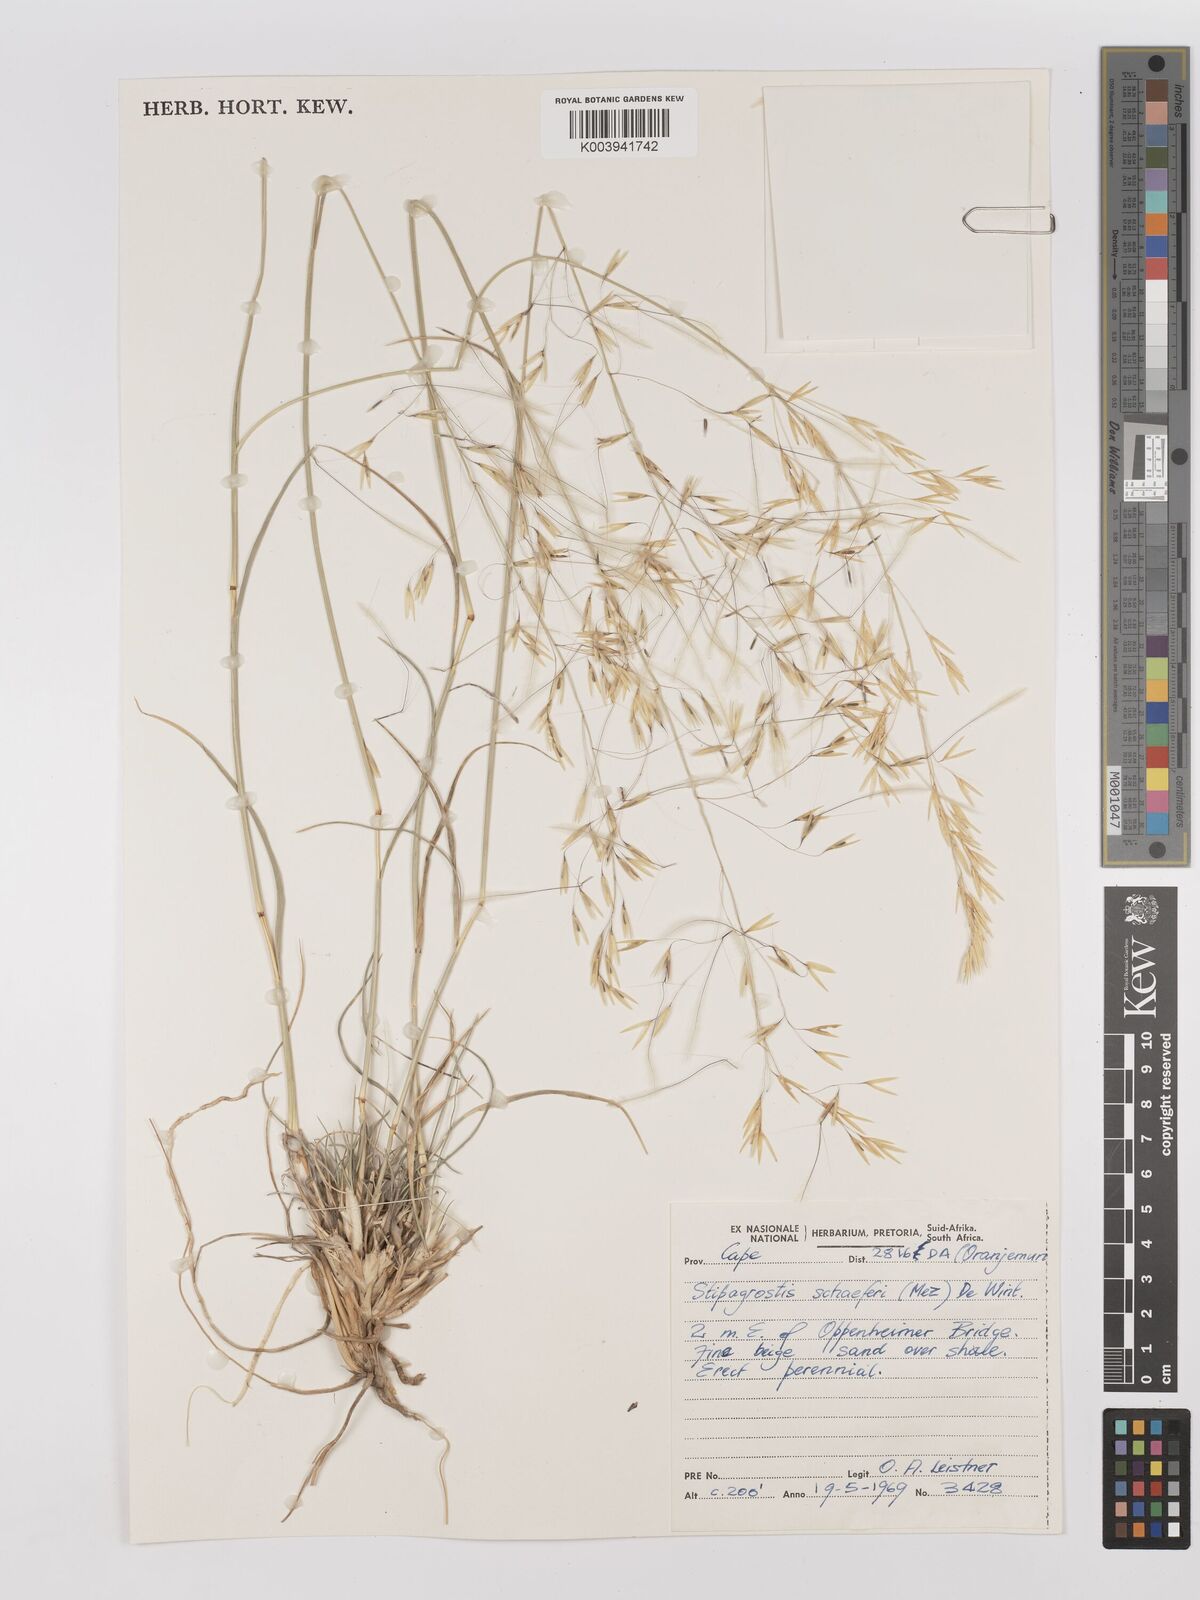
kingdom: Plantae
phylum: Tracheophyta
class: Liliopsida
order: Poales
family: Poaceae
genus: Stipagrostis
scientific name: Stipagrostis schaeferi
